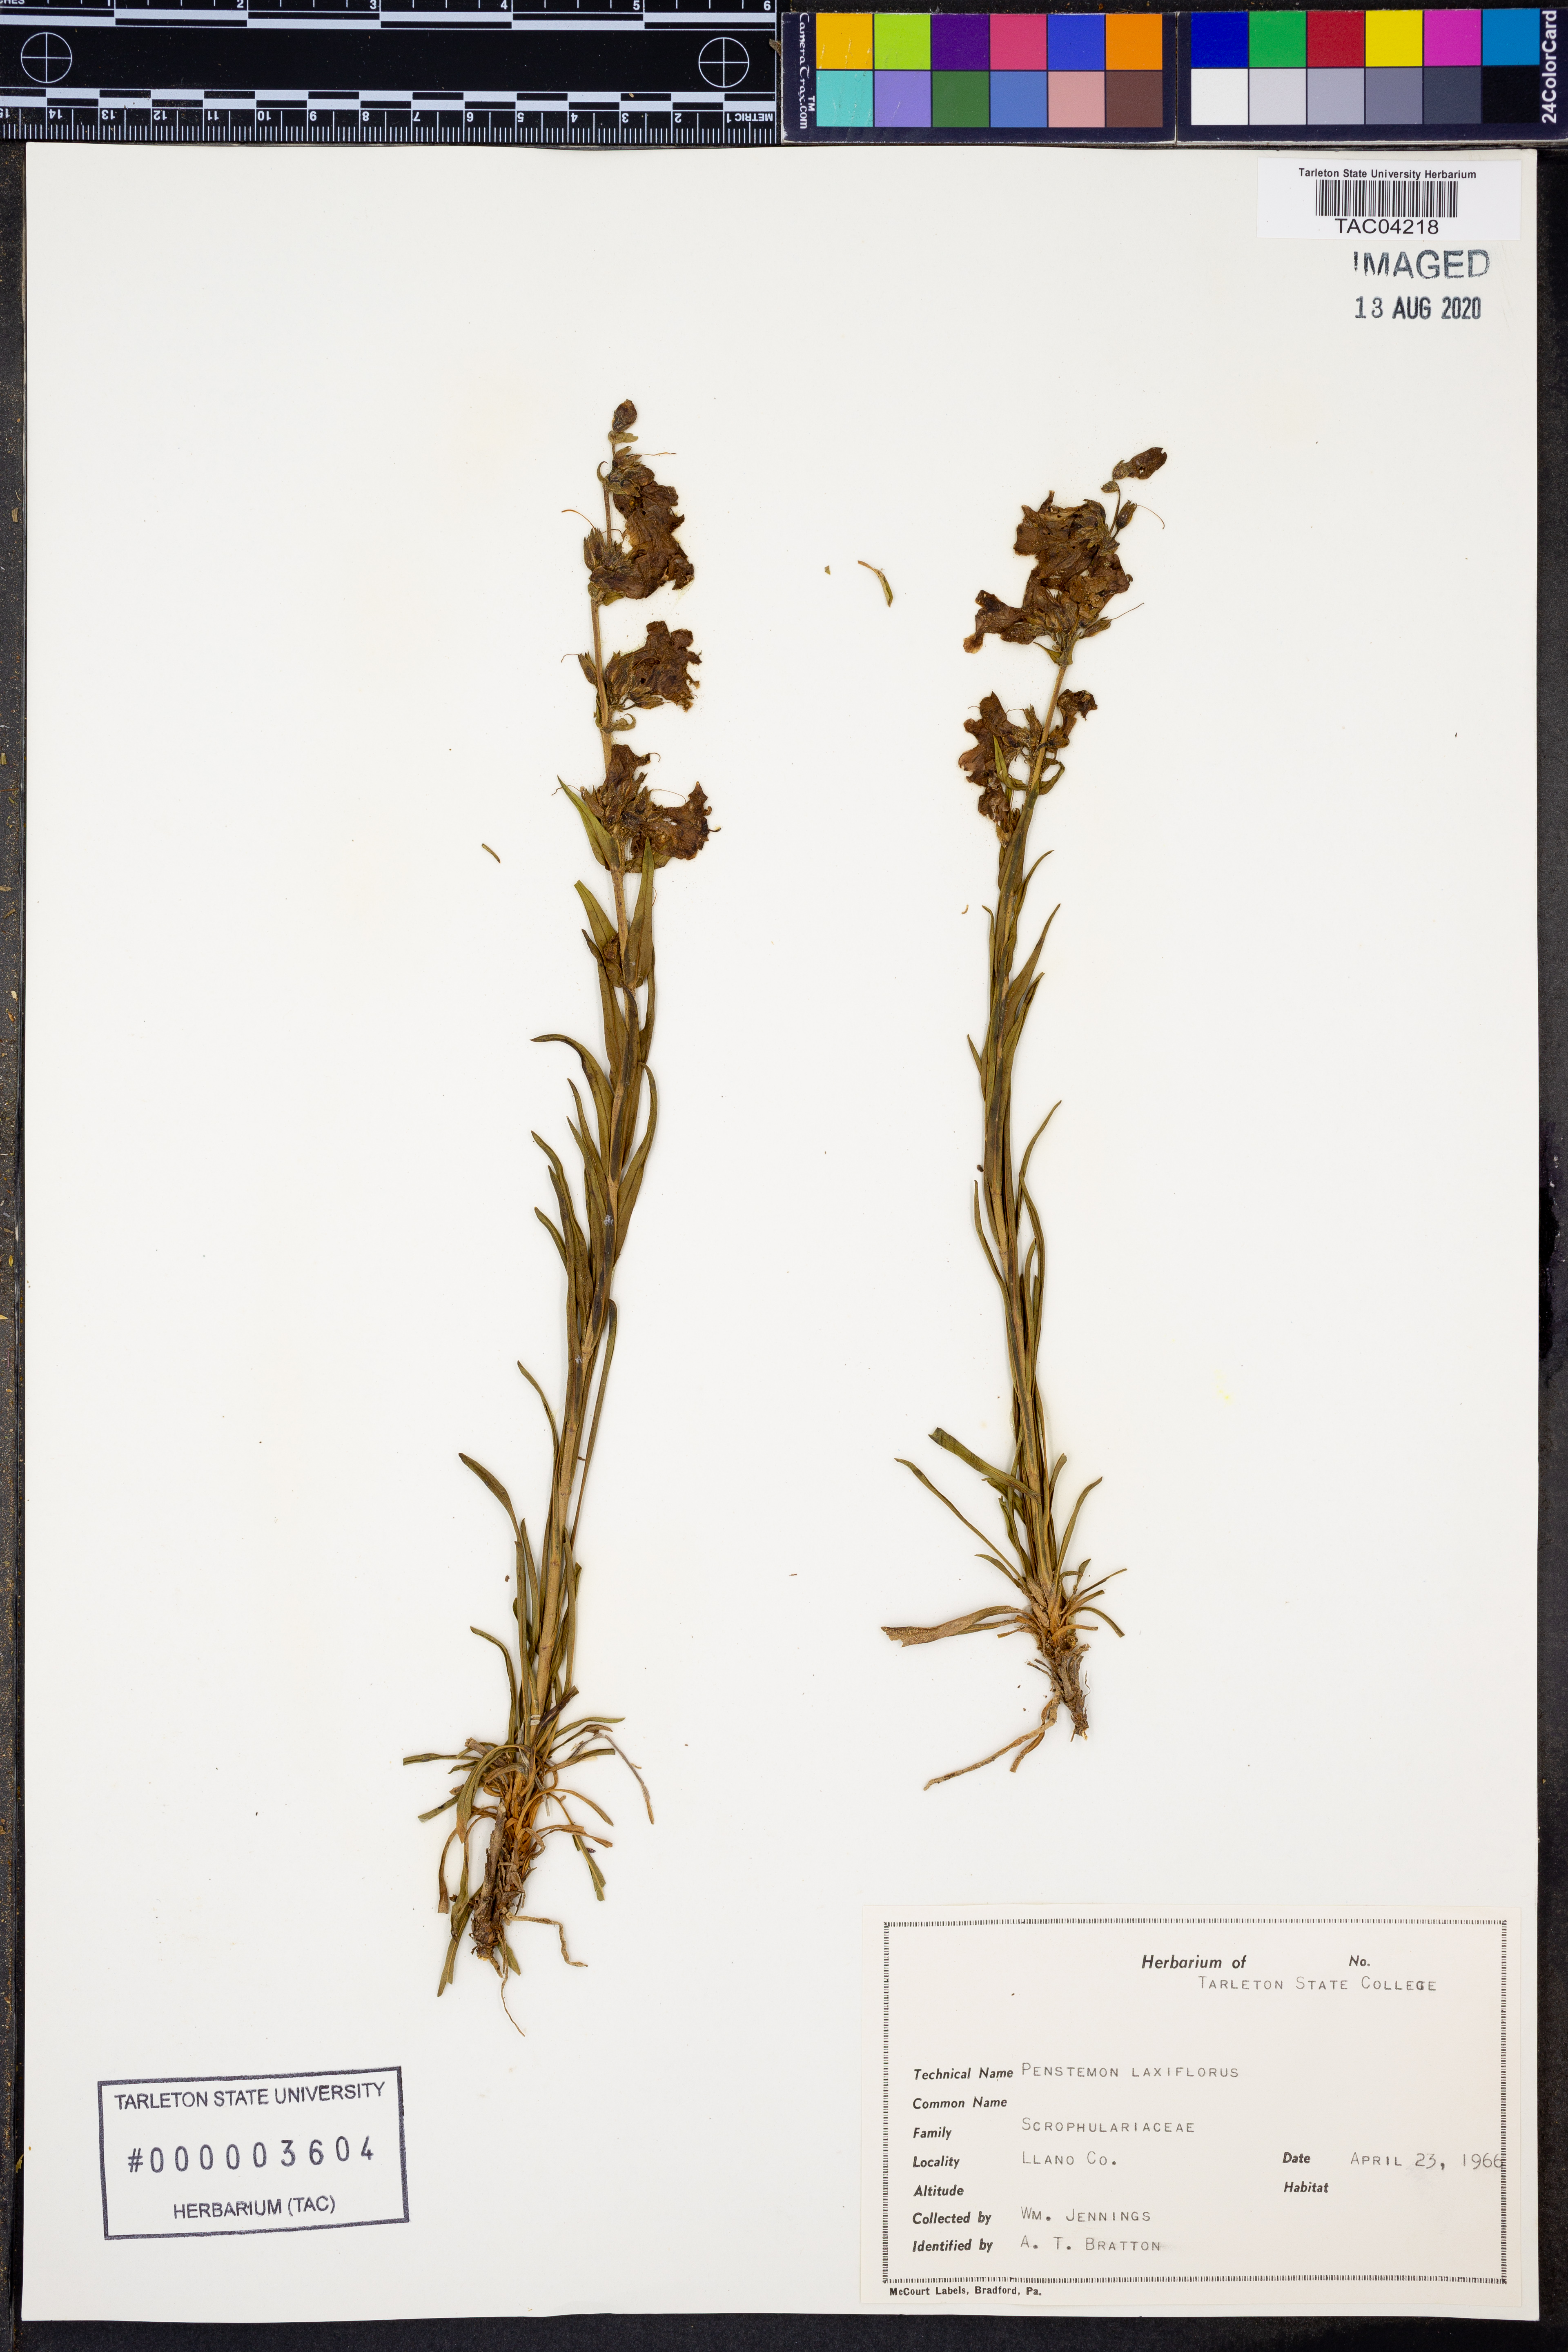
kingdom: Plantae
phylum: Tracheophyta
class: Magnoliopsida
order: Lamiales
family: Plantaginaceae
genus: Penstemon
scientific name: Penstemon laxiflorus
